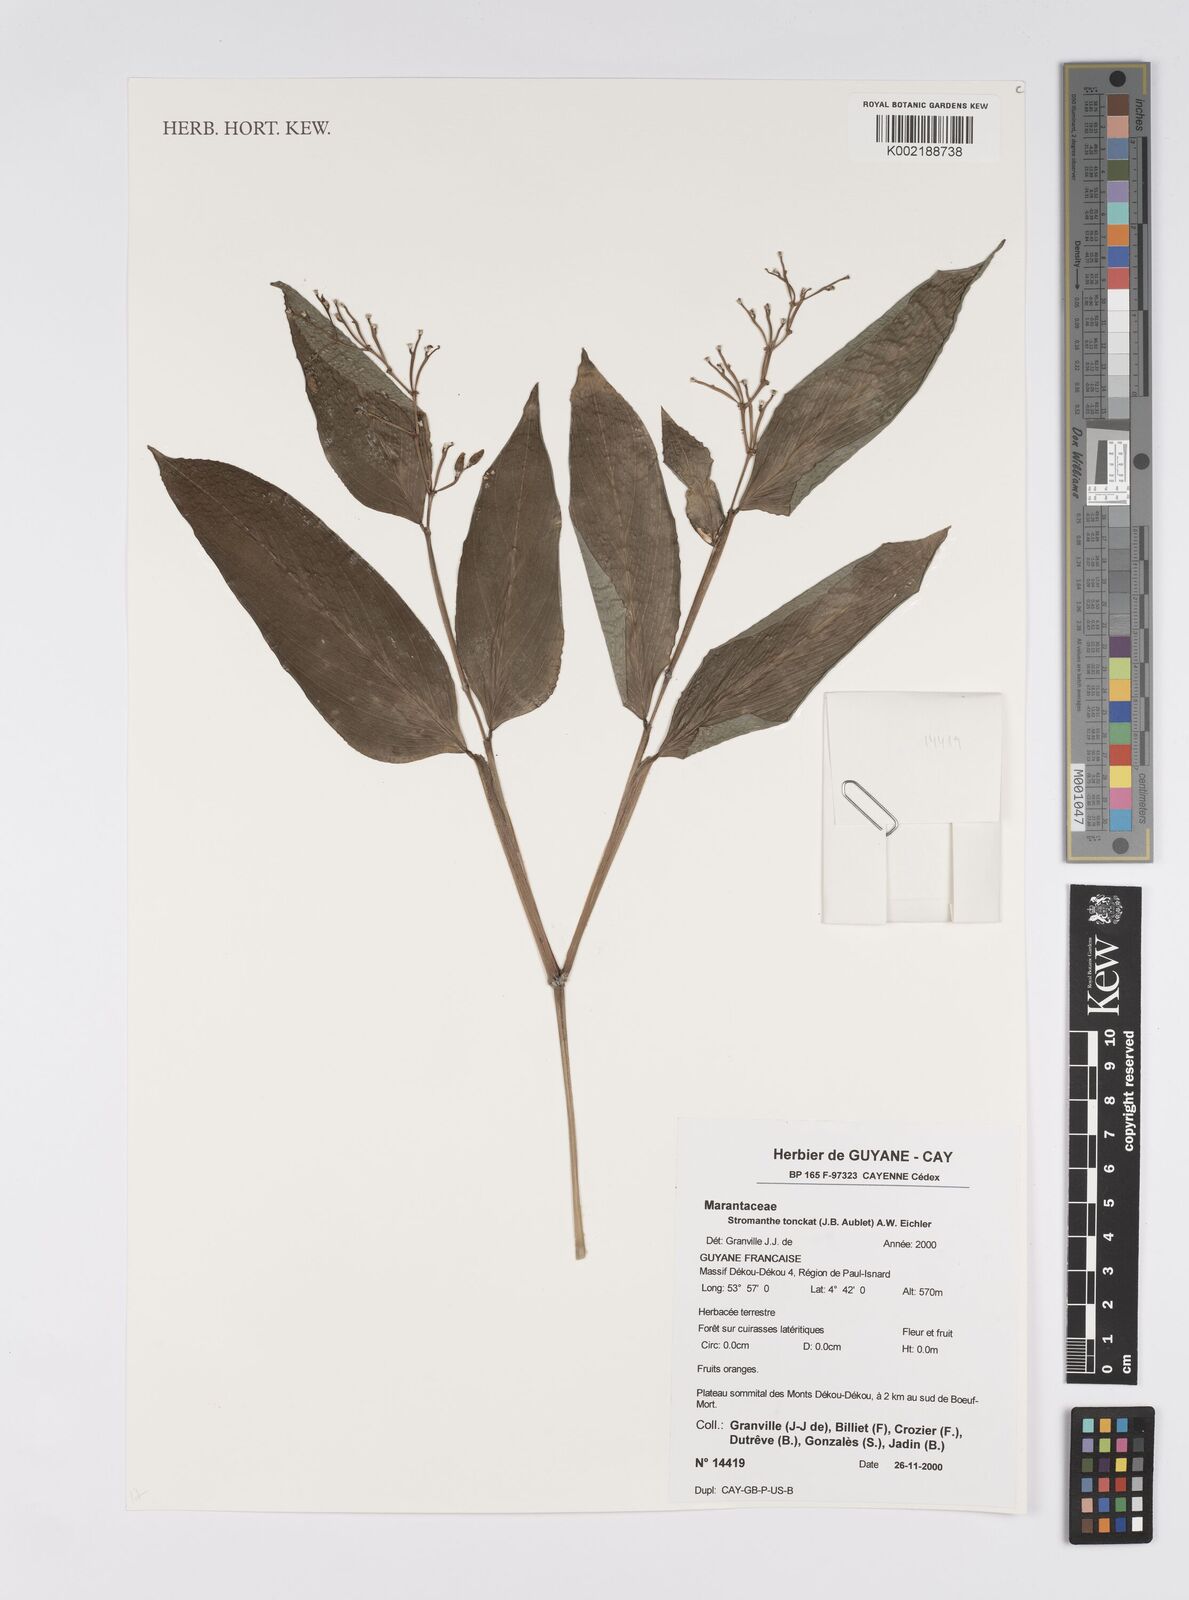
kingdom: Plantae
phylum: Tracheophyta
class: Liliopsida
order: Zingiberales
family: Marantaceae
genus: Stromanthe
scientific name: Stromanthe tonckat
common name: Stromanthe
